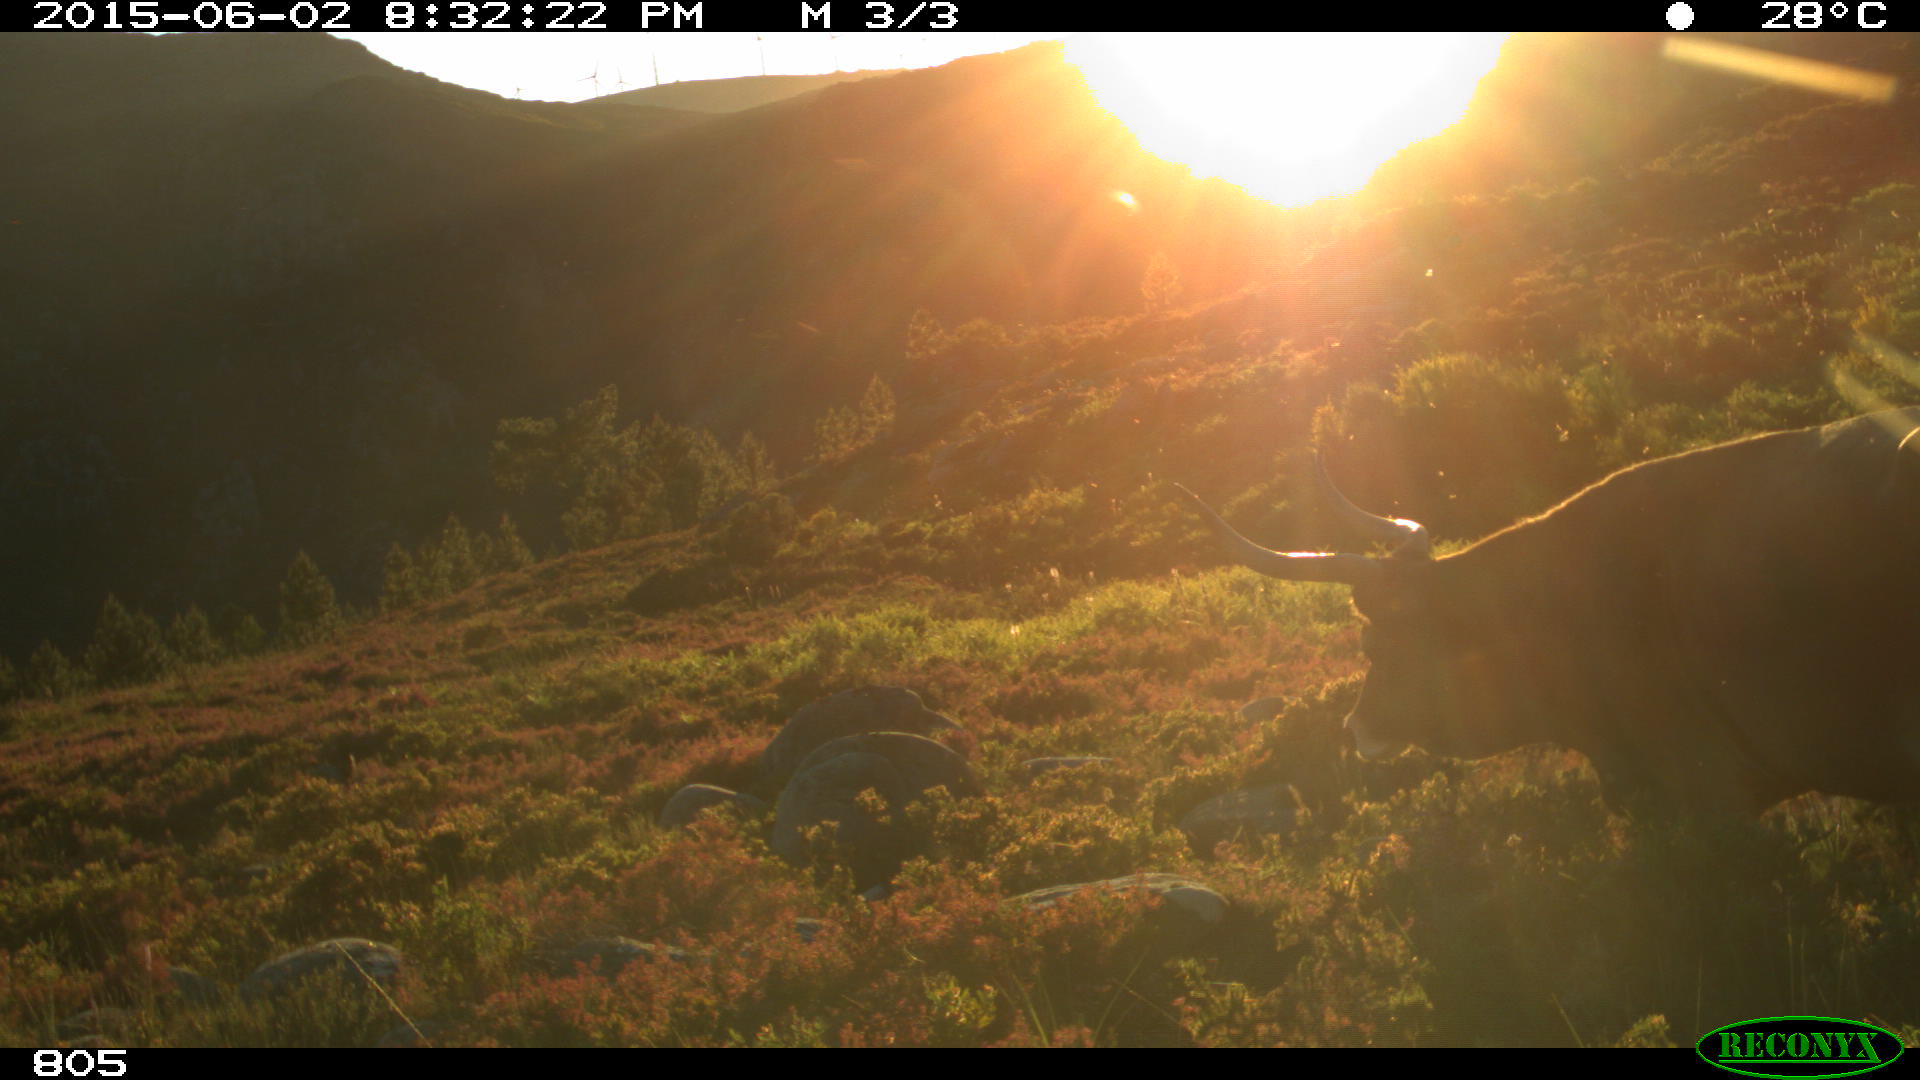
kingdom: Animalia
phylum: Chordata
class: Mammalia
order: Artiodactyla
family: Bovidae
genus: Bos
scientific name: Bos taurus
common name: Domesticated cattle
